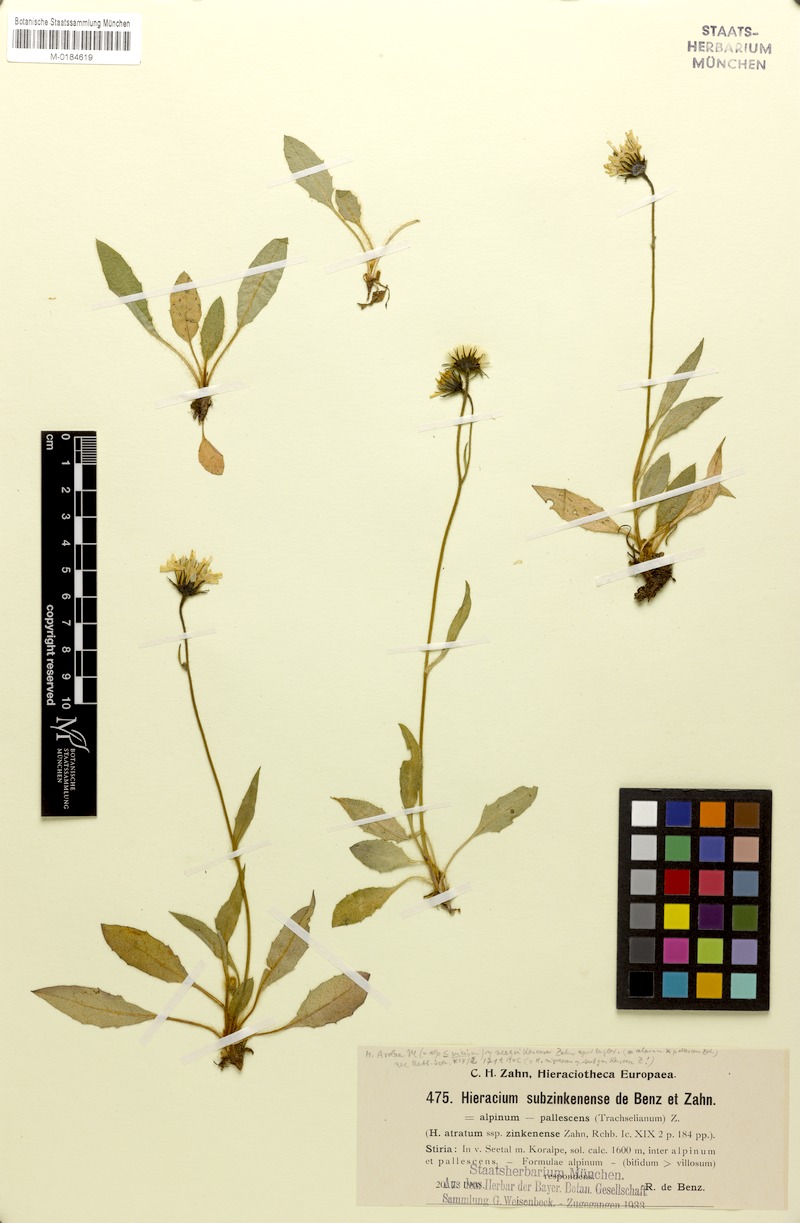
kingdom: Plantae
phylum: Tracheophyta
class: Magnoliopsida
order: Asterales
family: Asteraceae
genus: Hieracium
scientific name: Hieracium arolae
